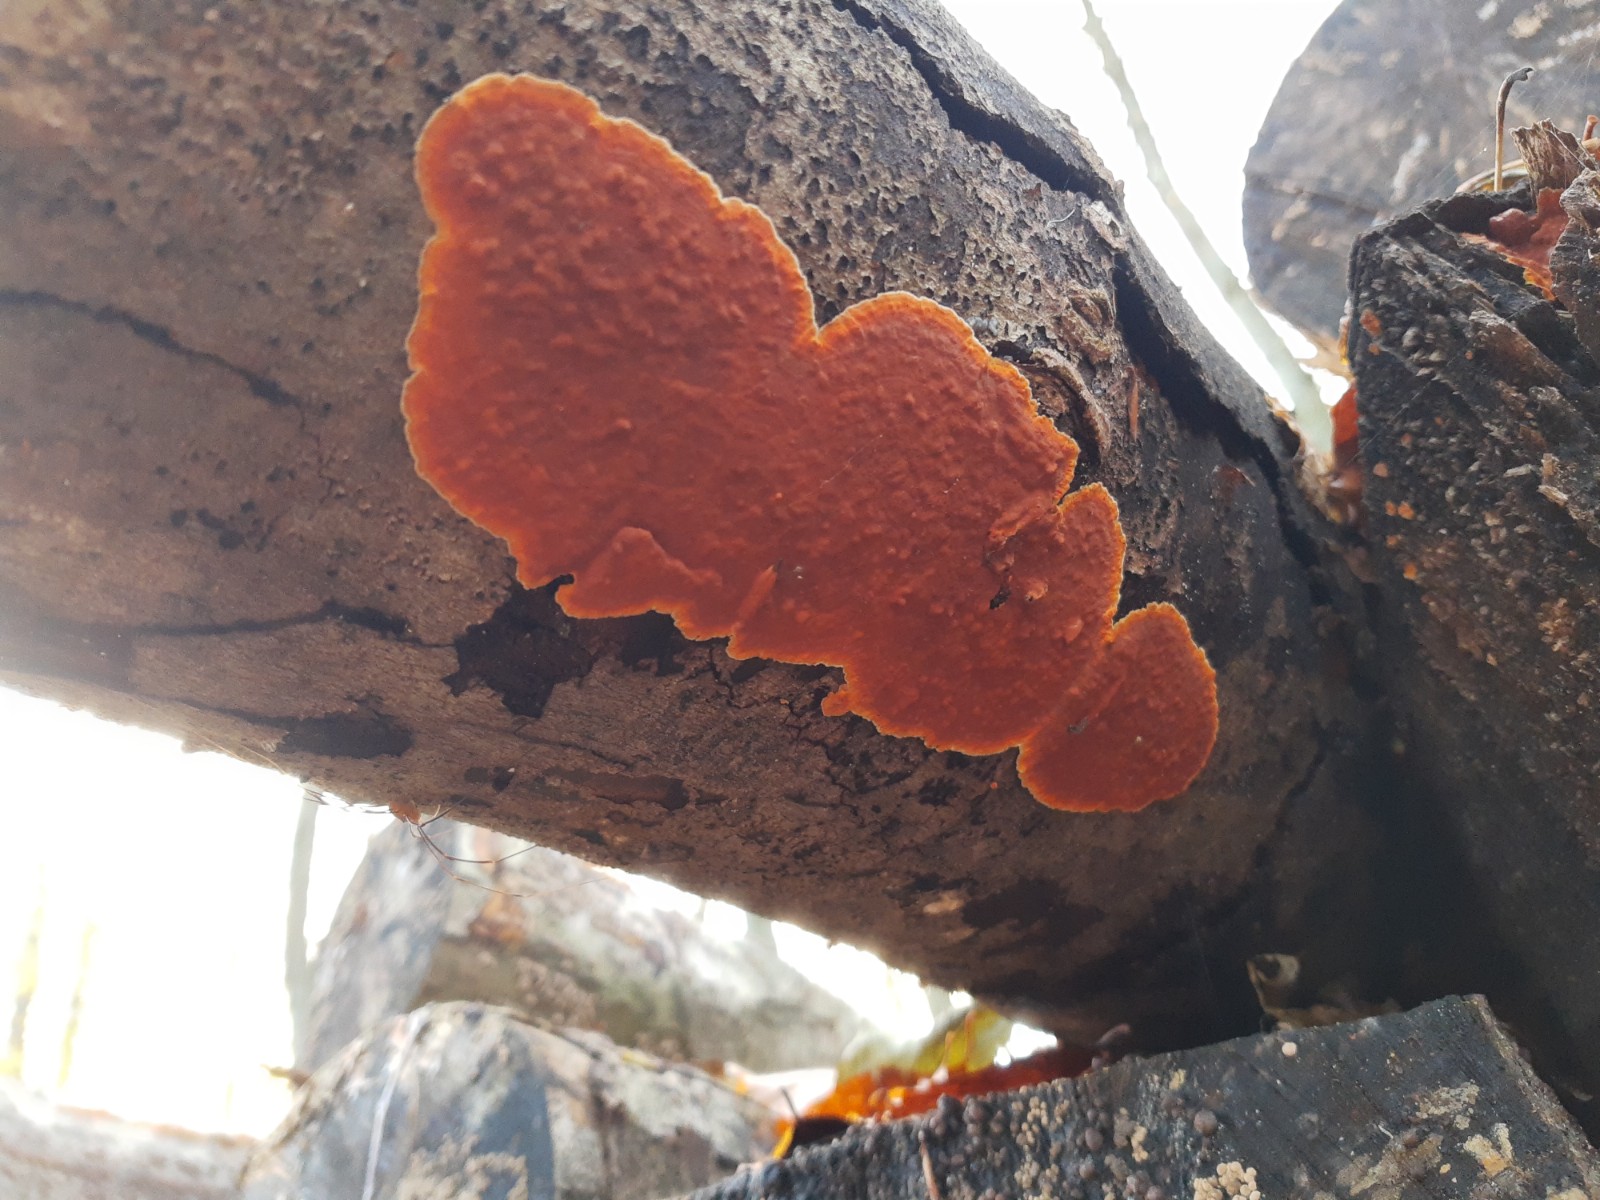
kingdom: Fungi
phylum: Basidiomycota
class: Agaricomycetes
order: Russulales
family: Peniophoraceae
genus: Peniophora
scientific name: Peniophora incarnata
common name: laksefarvet voksskind
